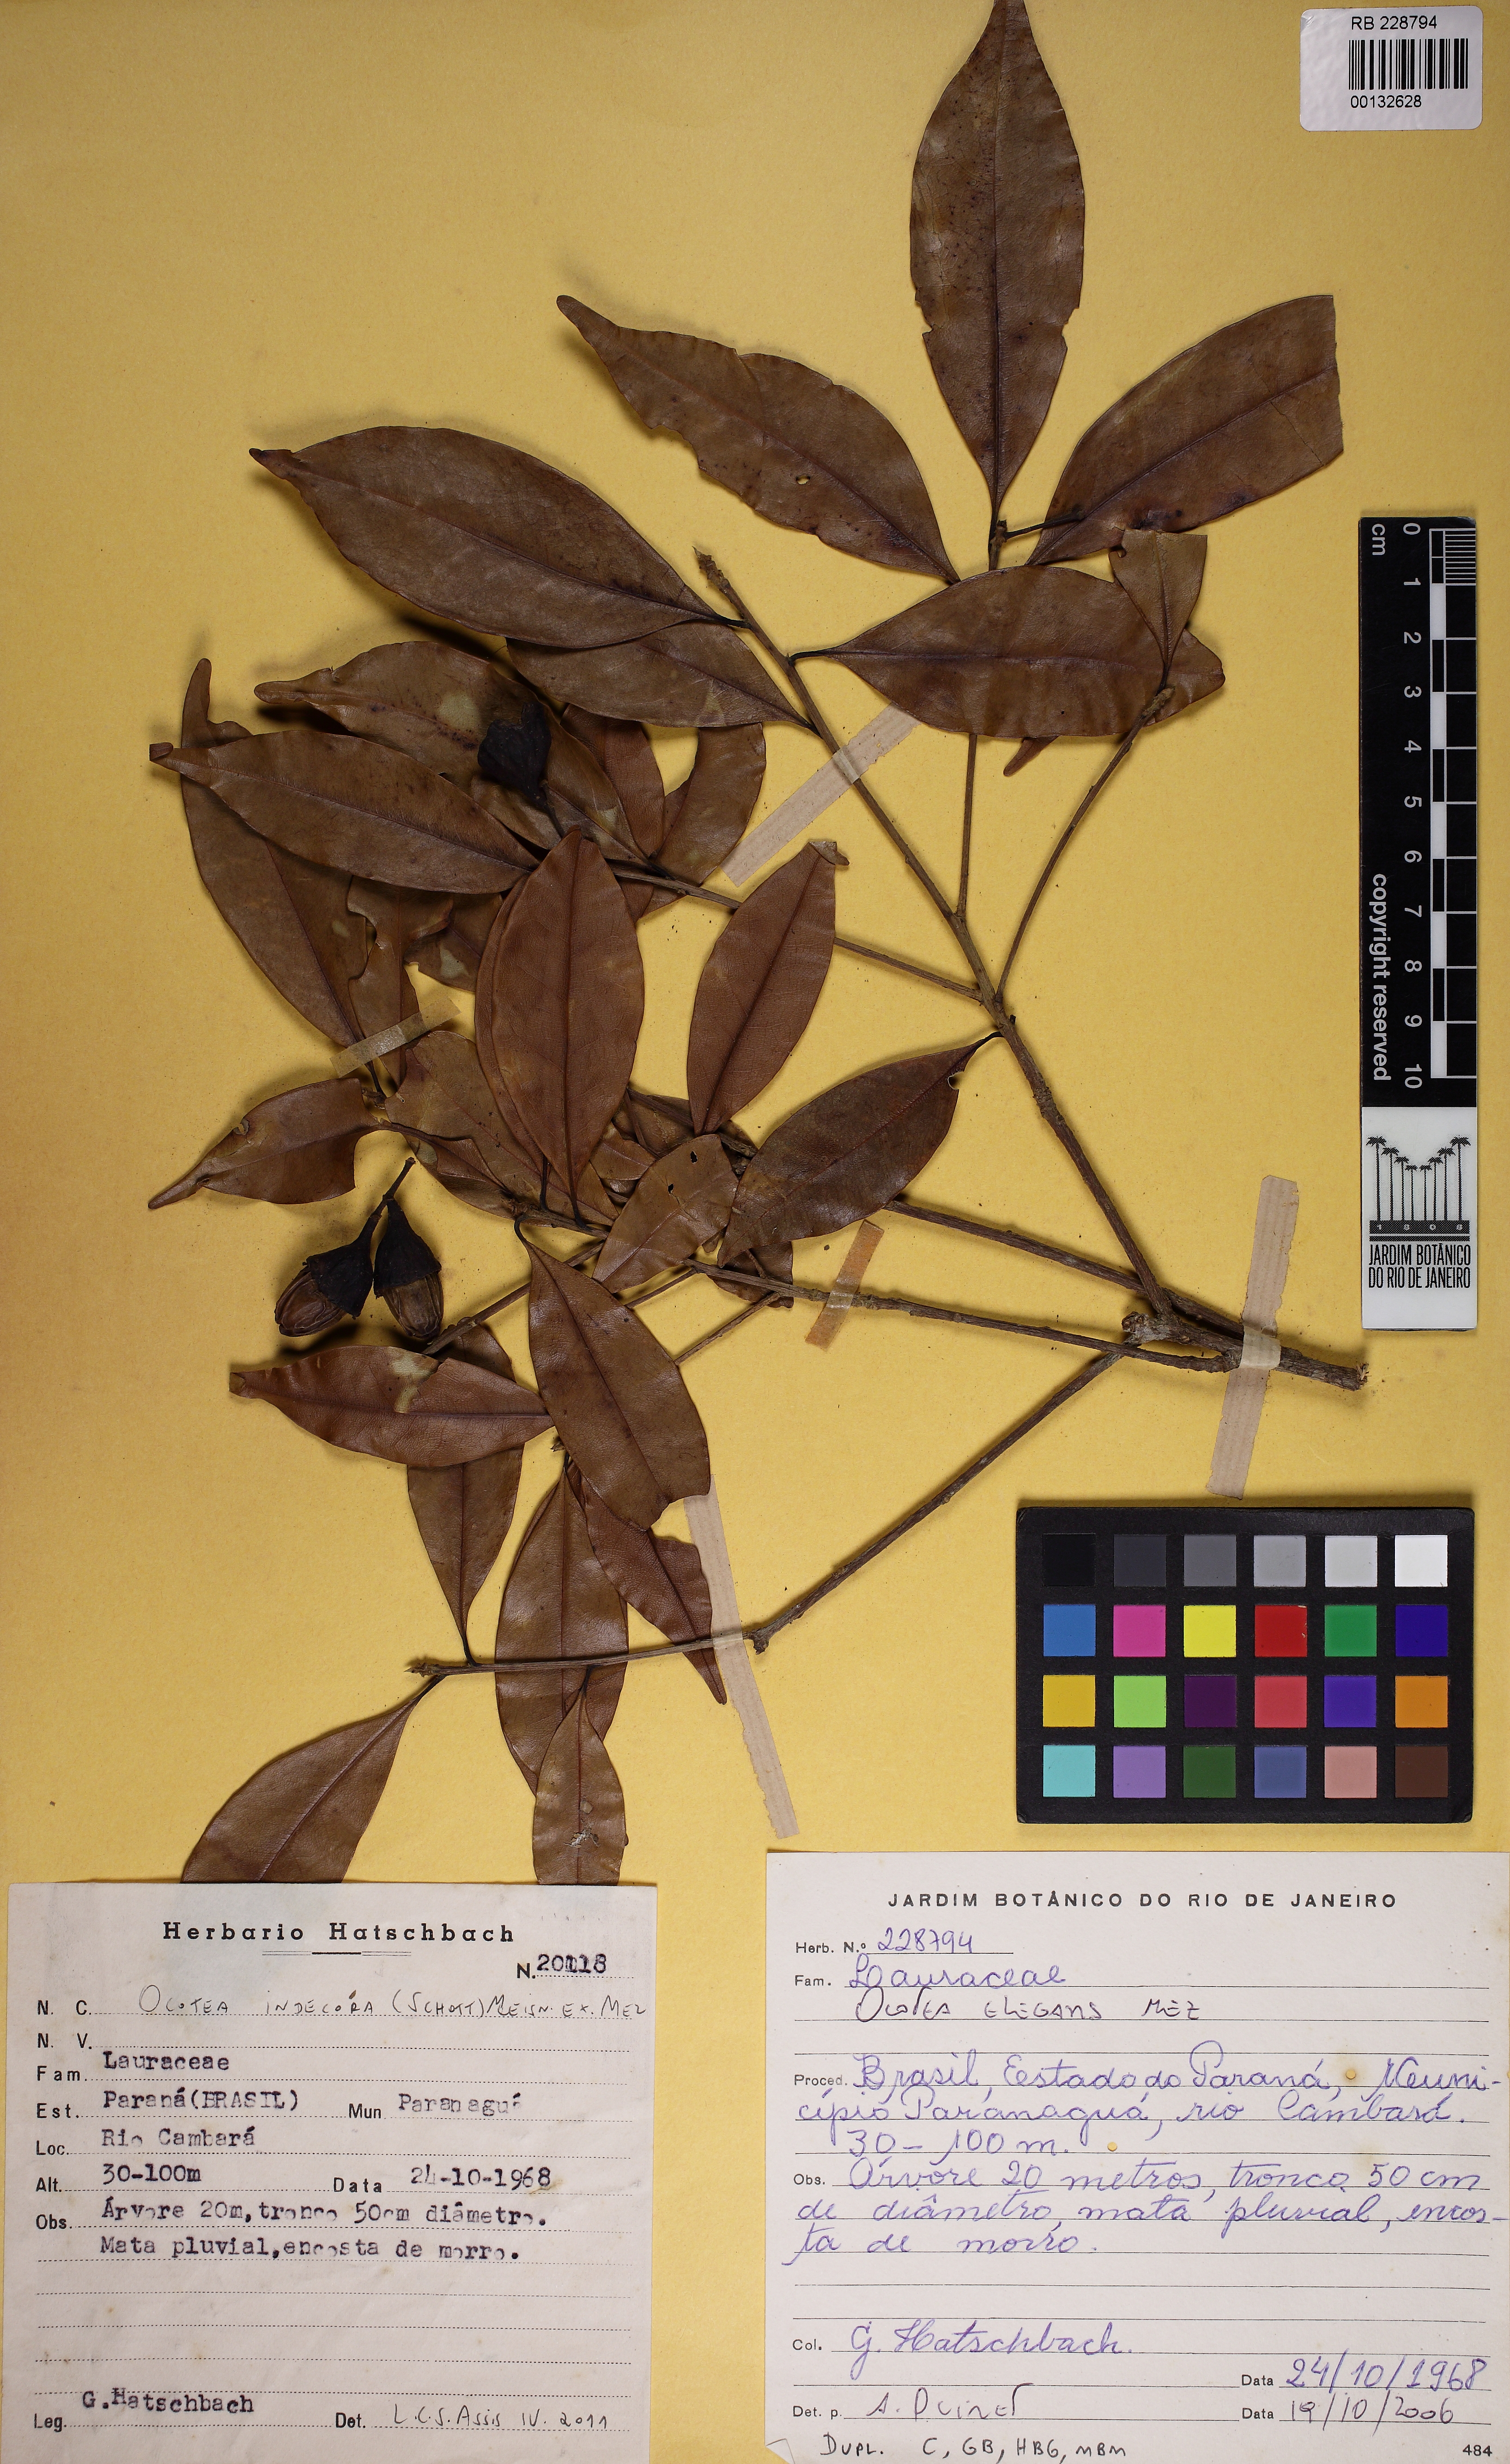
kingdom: Plantae
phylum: Tracheophyta
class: Magnoliopsida
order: Laurales
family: Lauraceae
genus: Mespilodaphne
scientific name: Mespilodaphne indecora
